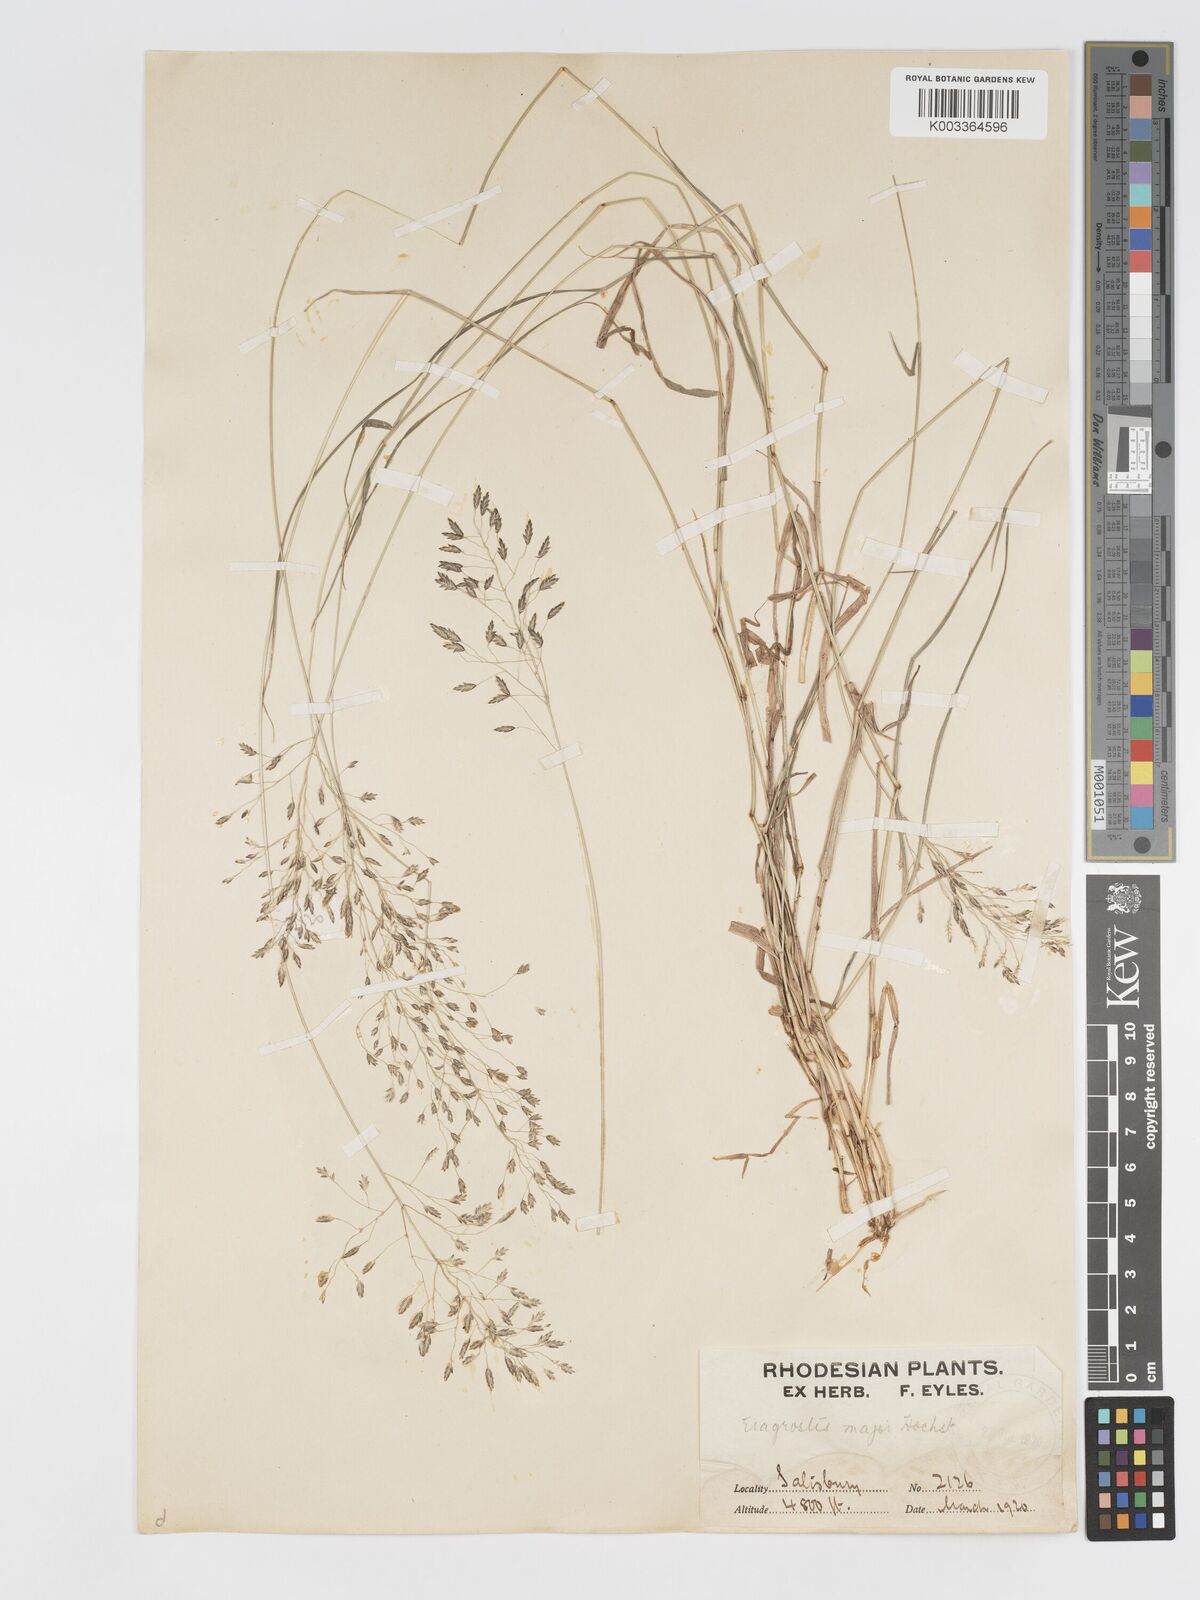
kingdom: Plantae
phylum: Tracheophyta
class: Liliopsida
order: Poales
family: Poaceae
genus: Eragrostis
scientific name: Eragrostis patentipilosa
